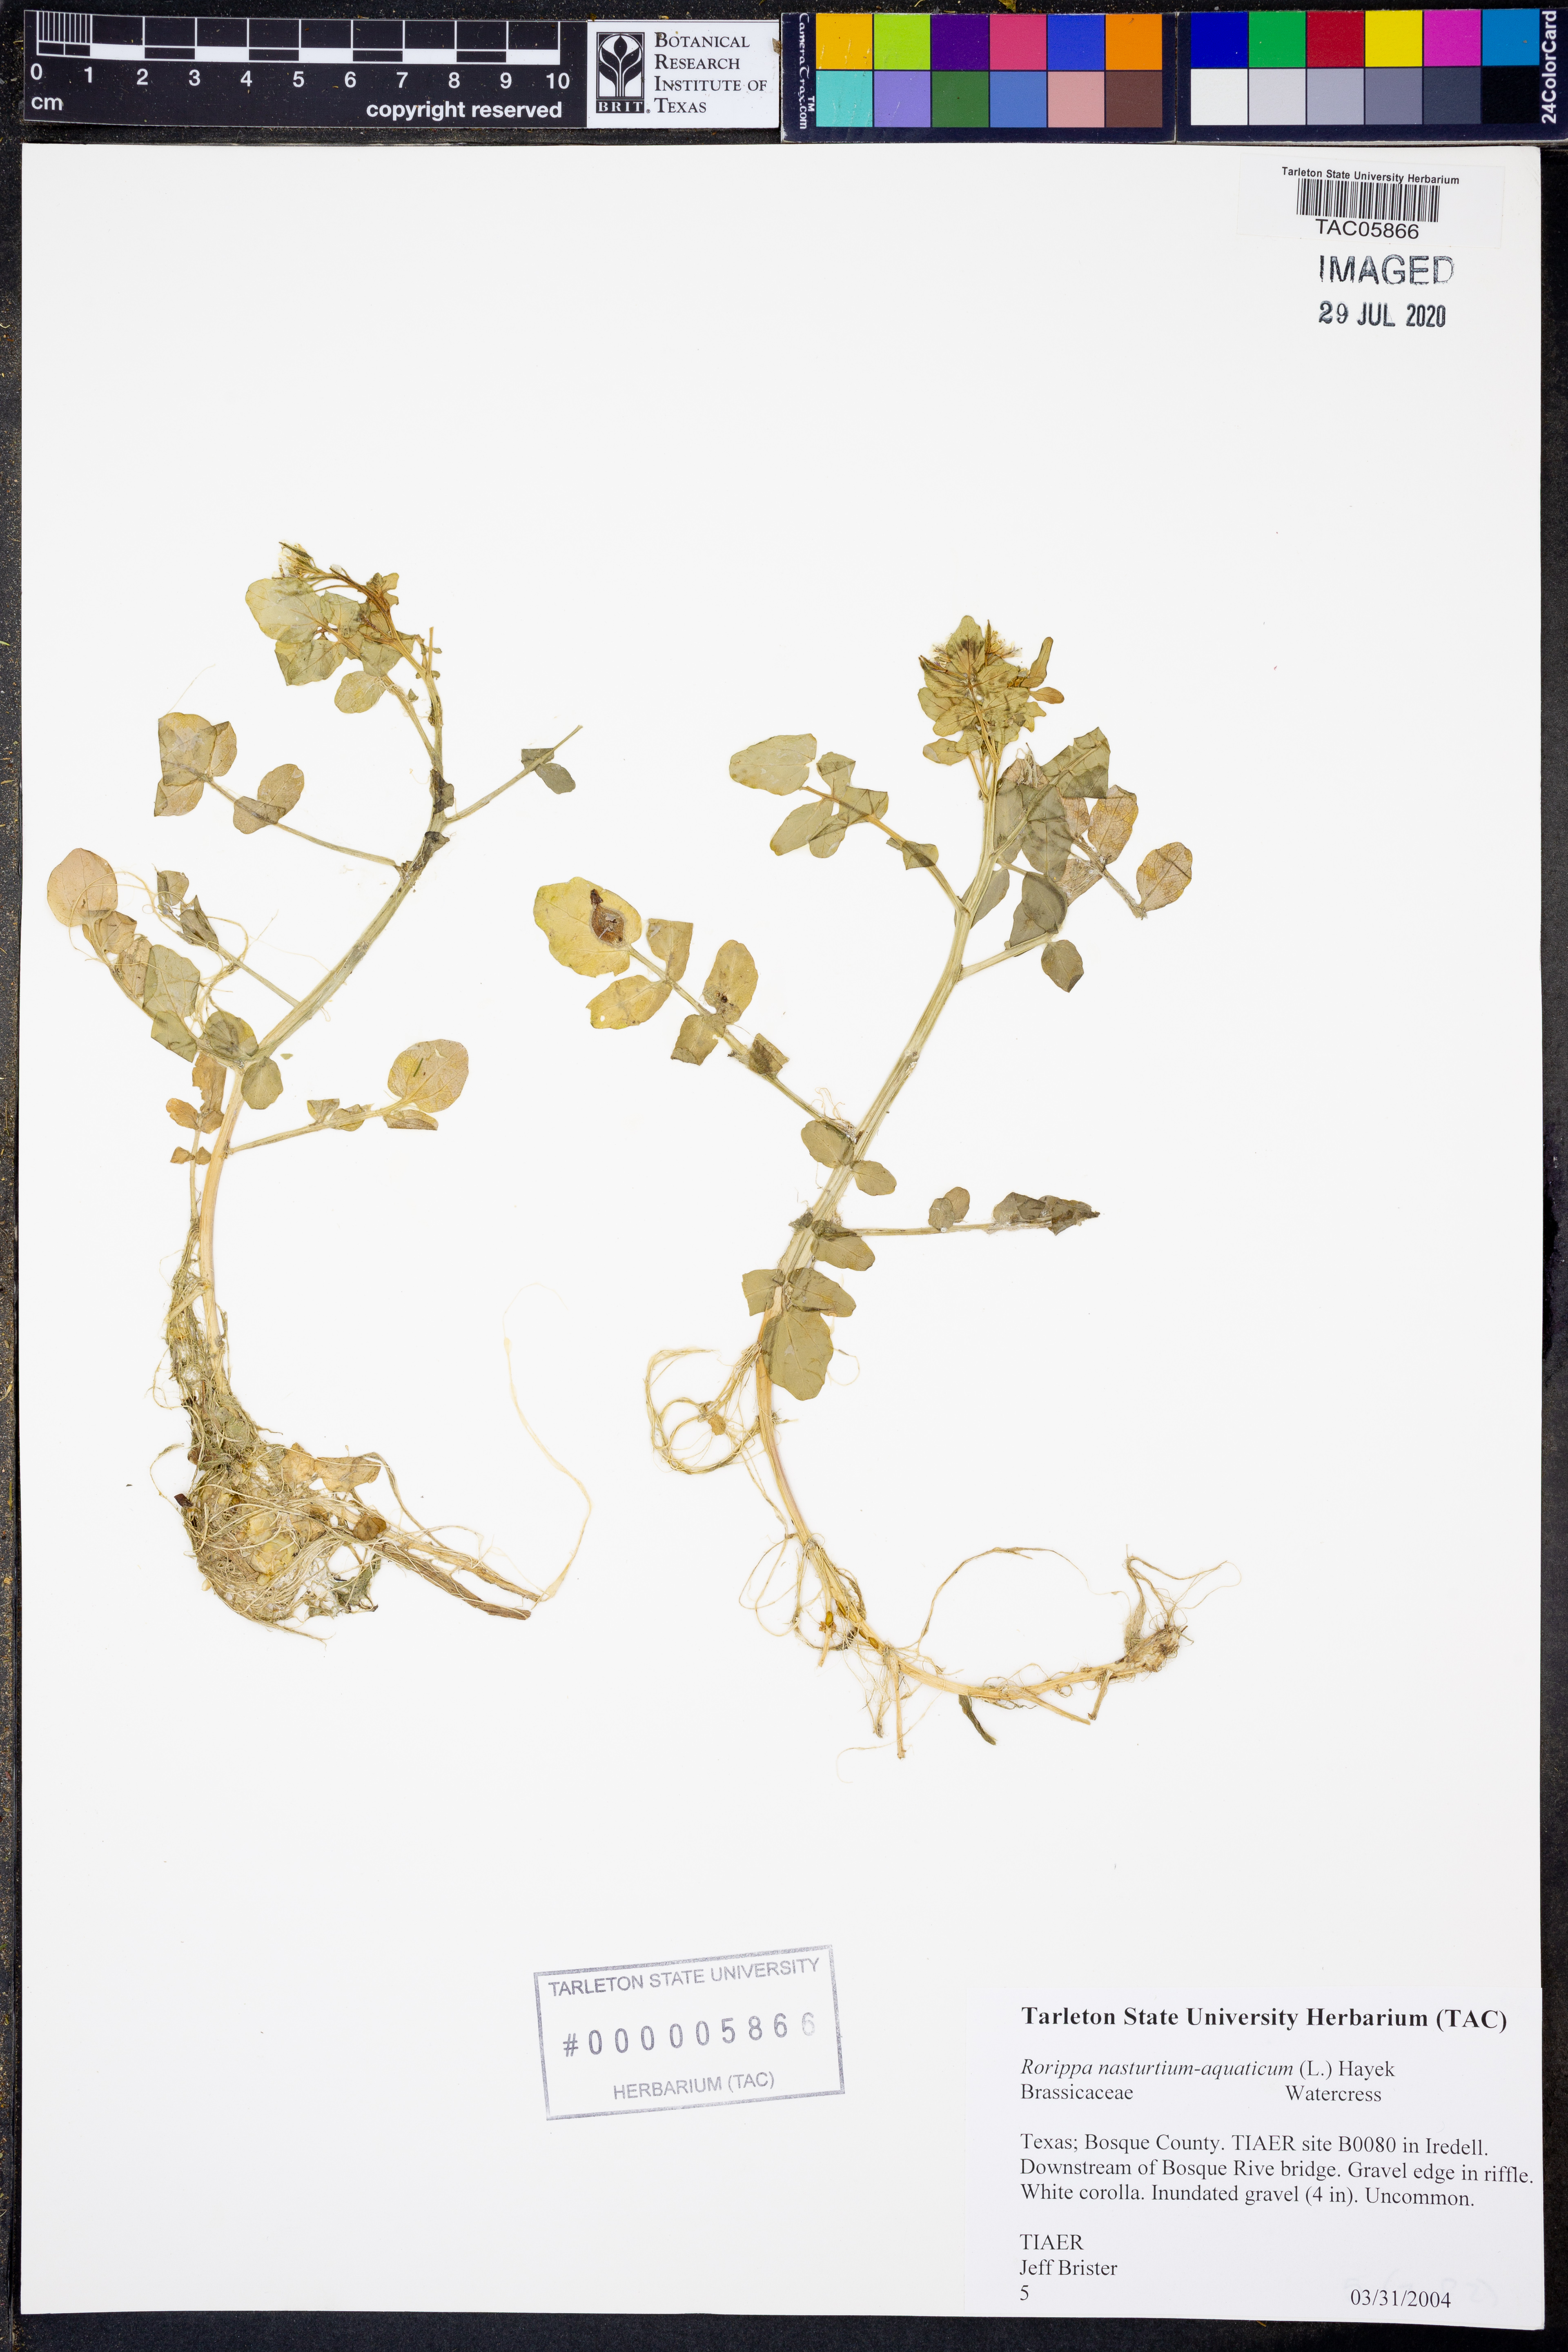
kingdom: Plantae
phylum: Tracheophyta
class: Magnoliopsida
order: Brassicales
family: Brassicaceae
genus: Nasturtium
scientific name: Nasturtium officinale
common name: Watercress
